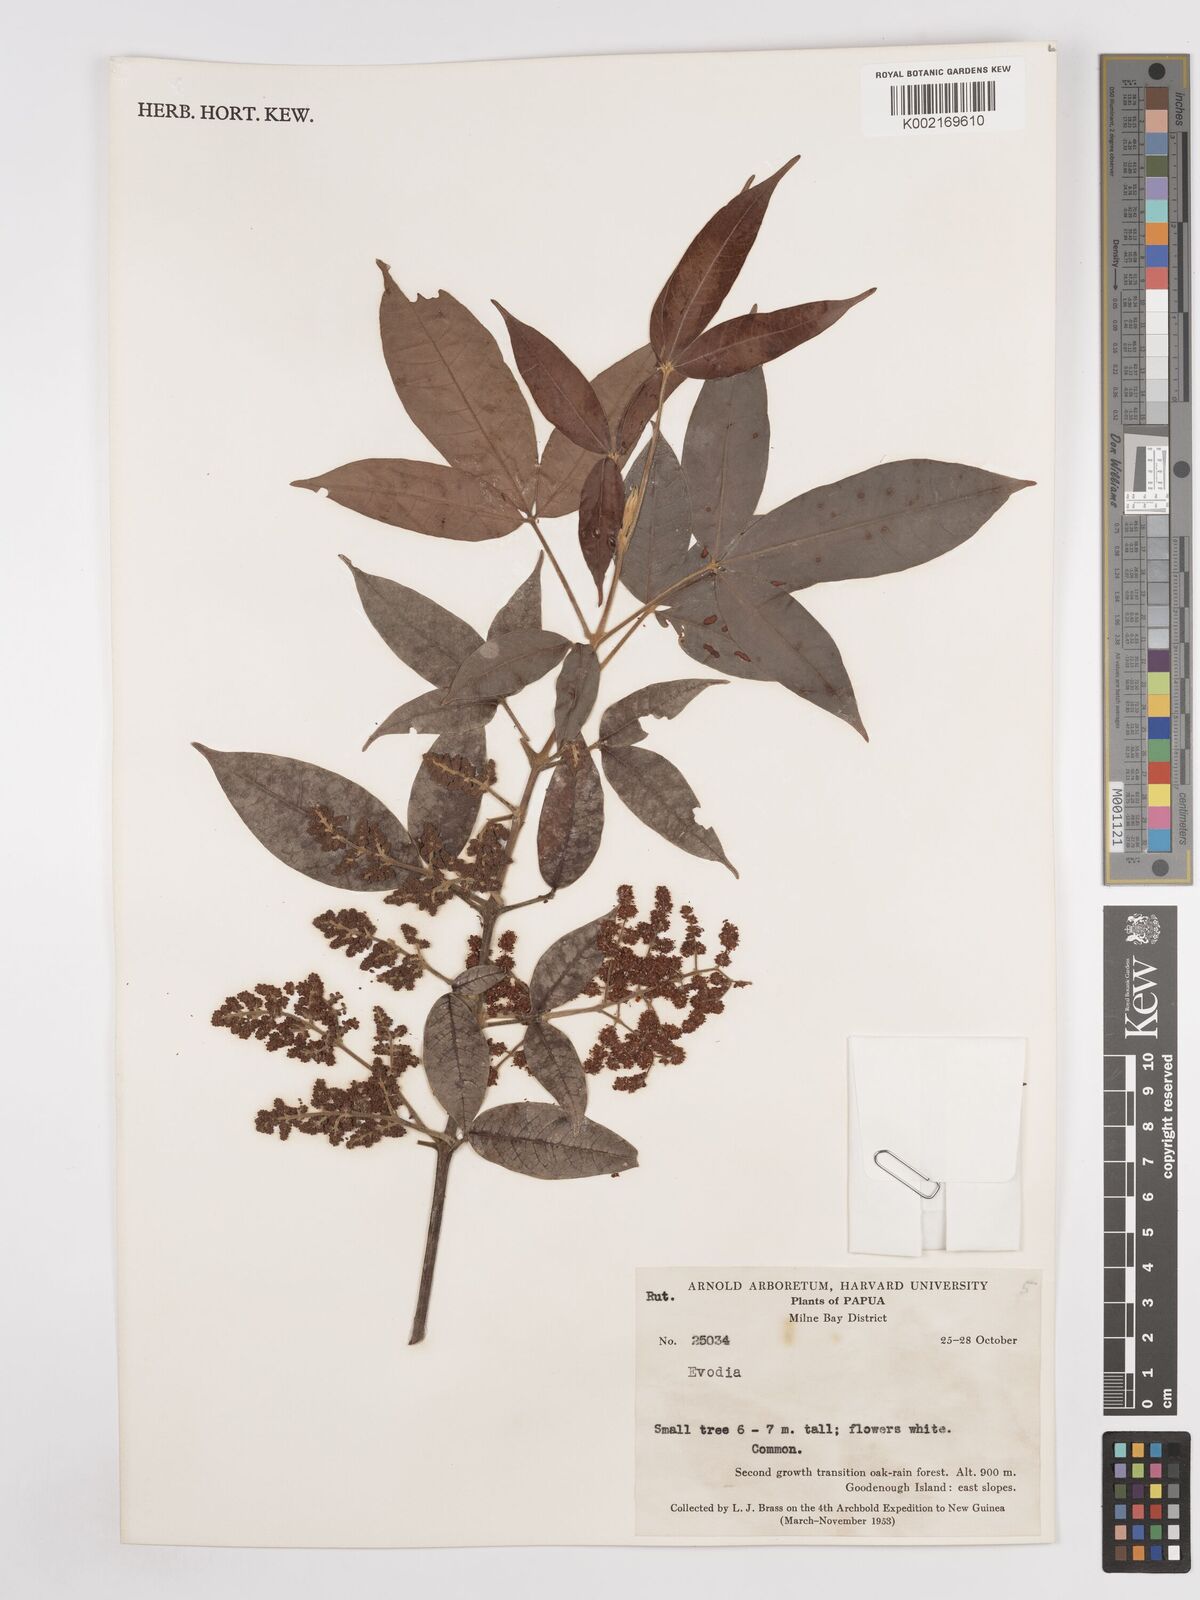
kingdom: Plantae
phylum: Tracheophyta
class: Magnoliopsida
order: Sapindales
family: Rutaceae
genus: Euodia
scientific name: Euodia
